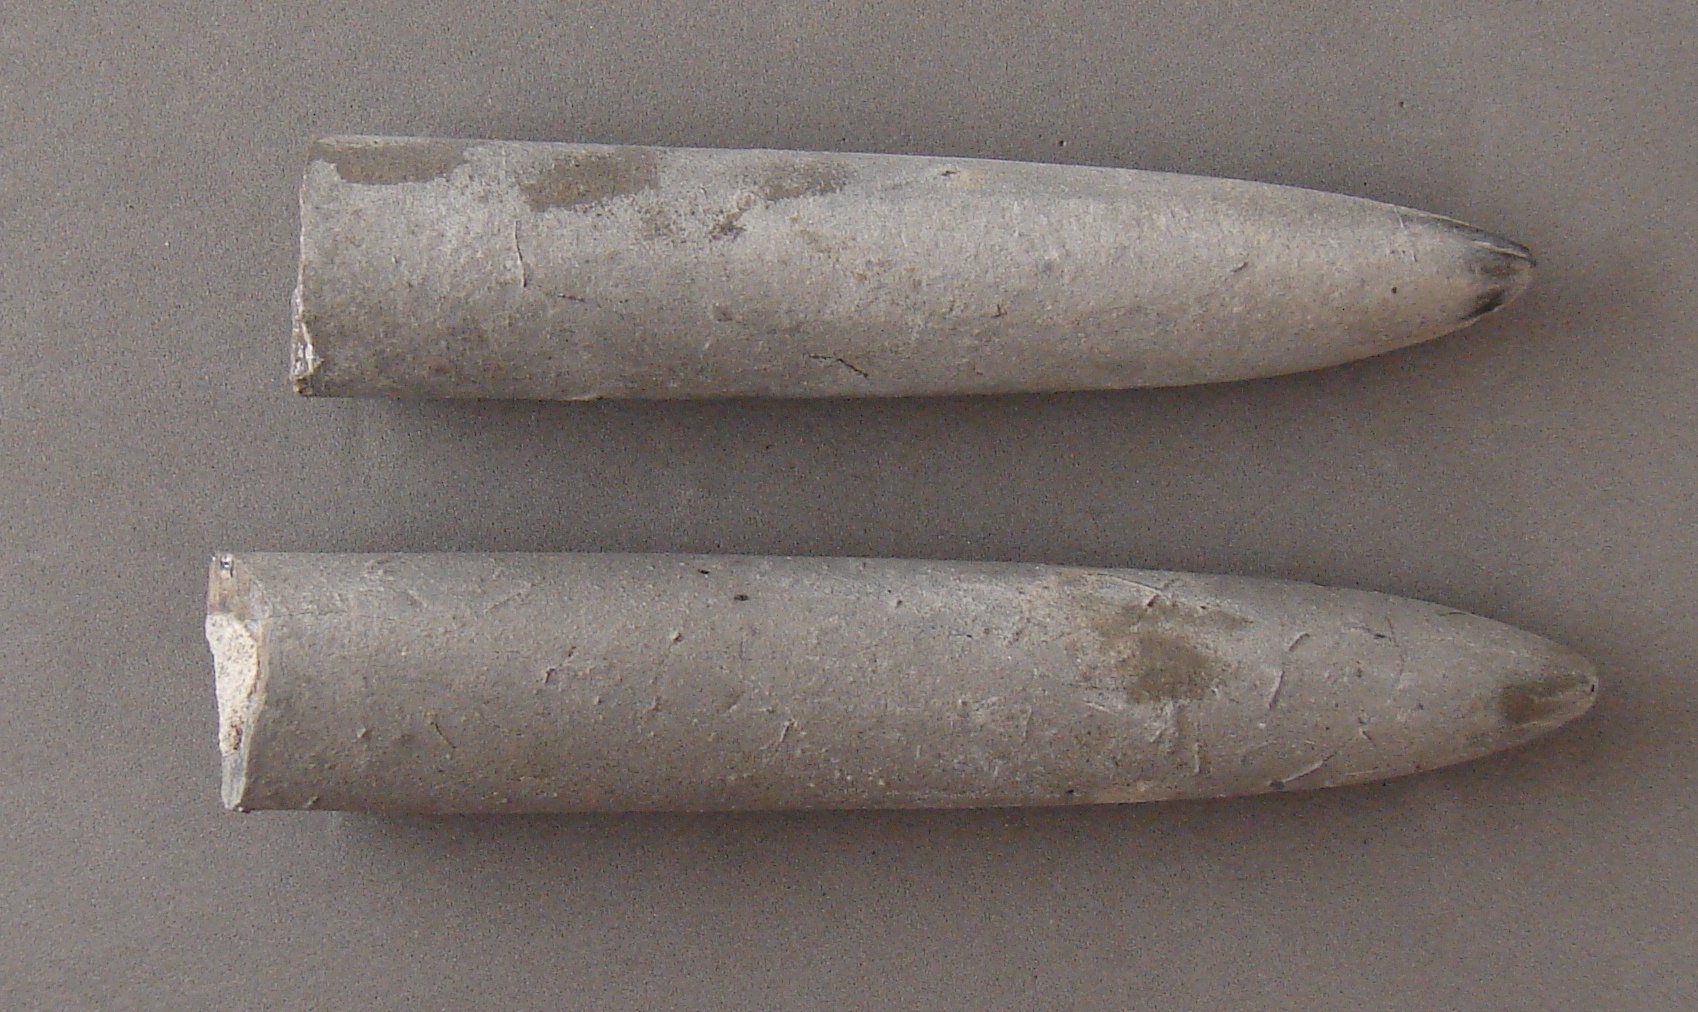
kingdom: Animalia
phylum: Mollusca
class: Cephalopoda
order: Belemnitida
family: Passaloteuthidae
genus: Passaloteuthis
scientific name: Passaloteuthis bisulcata
